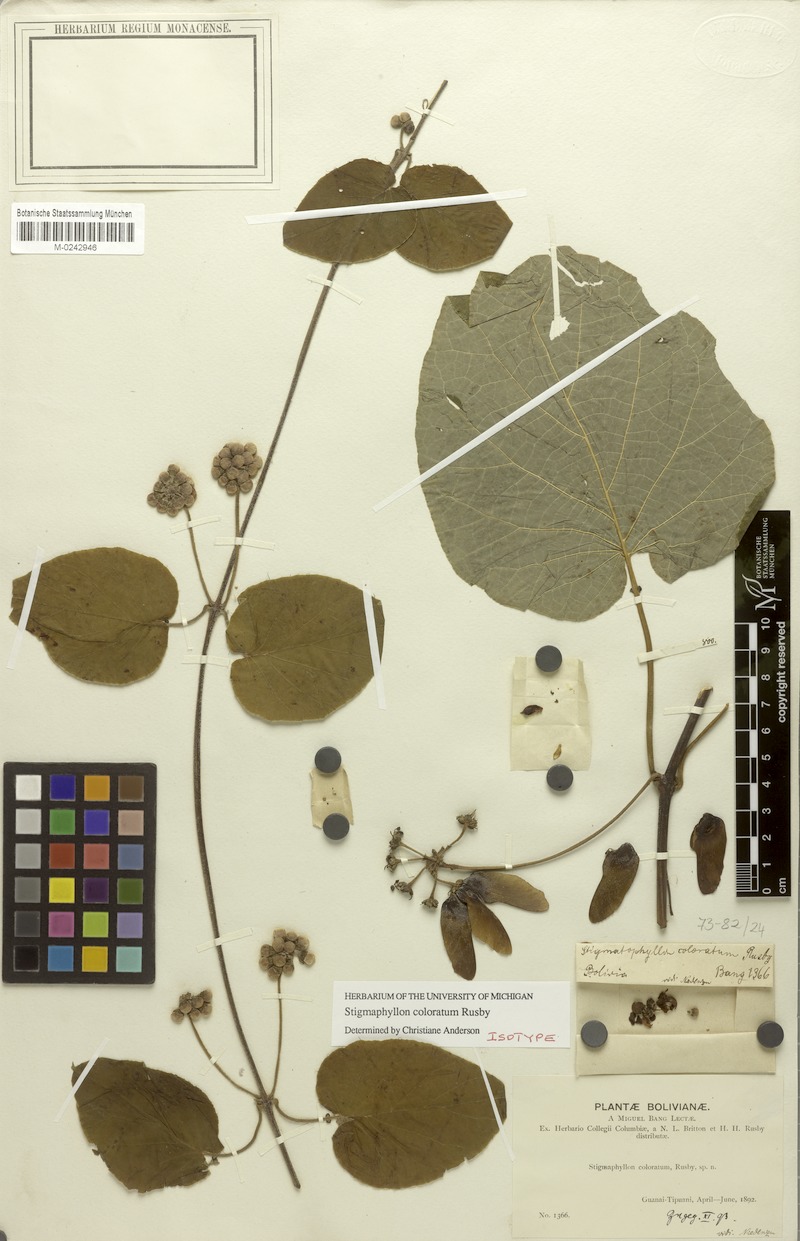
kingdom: Plantae
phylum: Tracheophyta
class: Magnoliopsida
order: Malpighiales
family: Malpighiaceae
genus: Stigmaphyllon
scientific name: Stigmaphyllon coloratum
